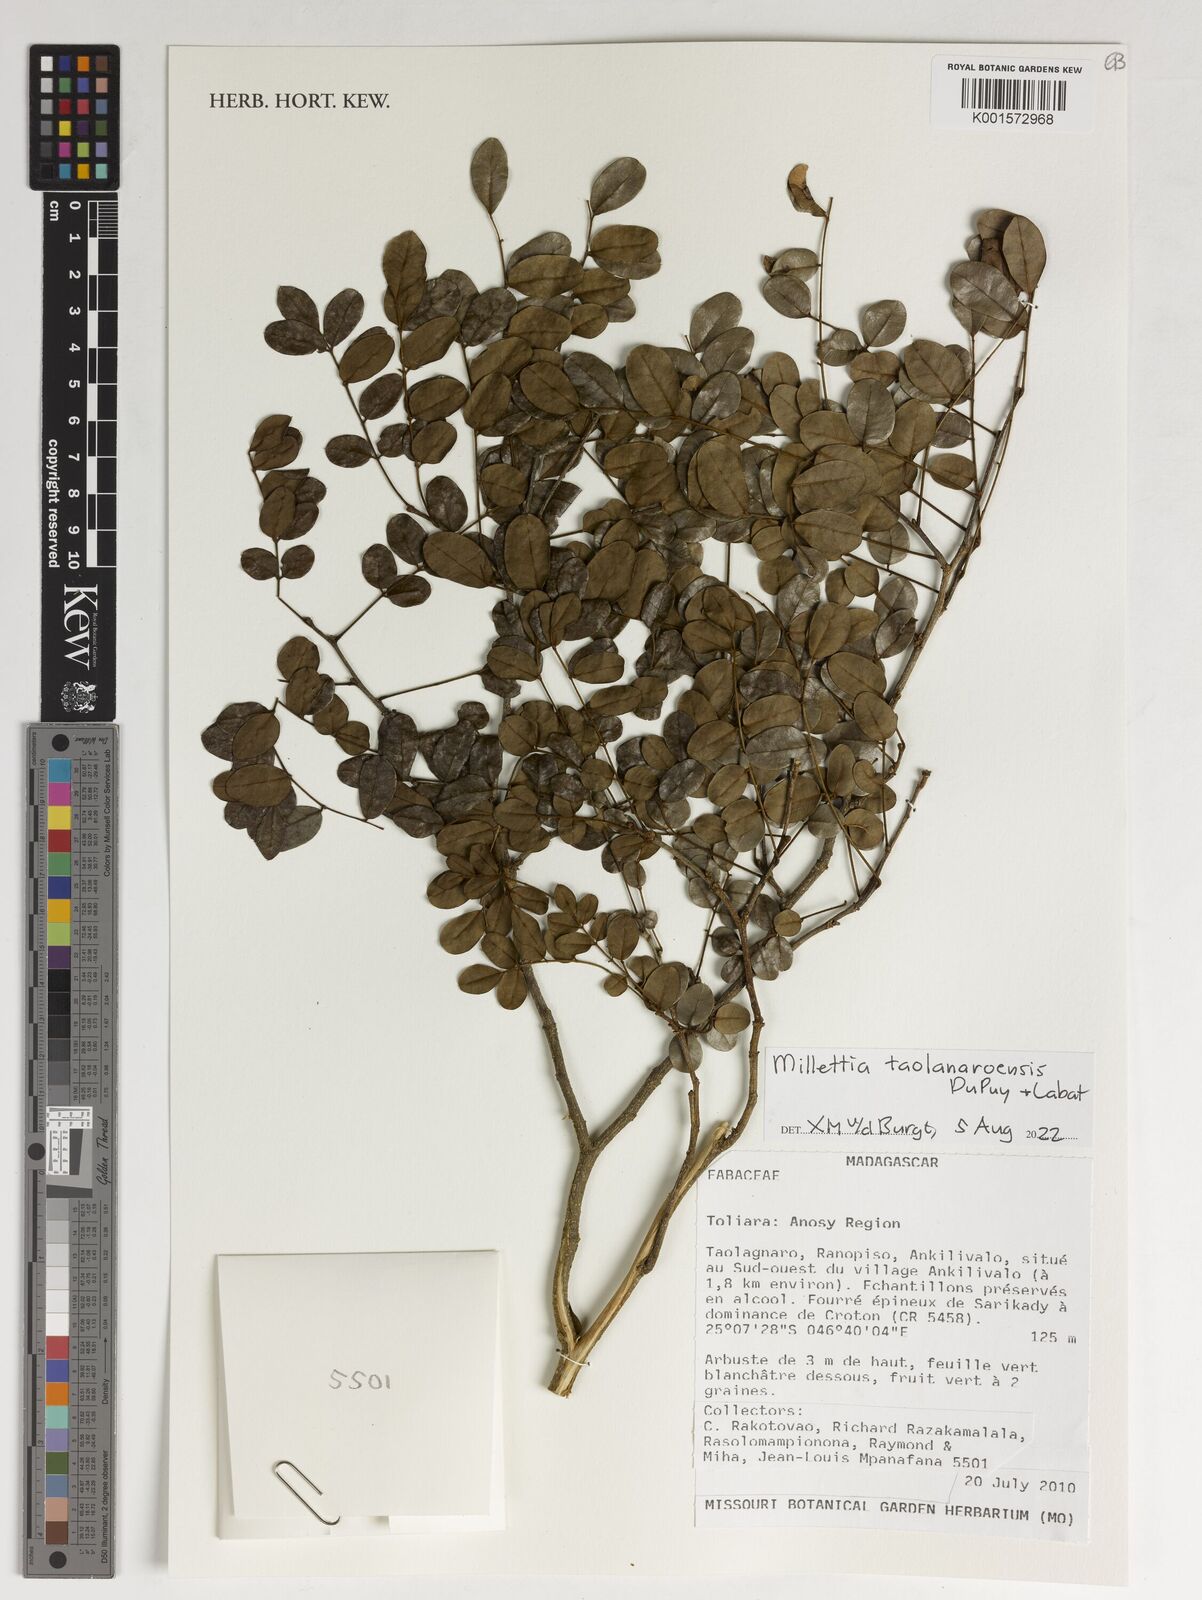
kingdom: Plantae
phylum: Tracheophyta
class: Magnoliopsida
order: Fabales
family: Fabaceae
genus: Millettia
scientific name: Millettia taolanaroensis
